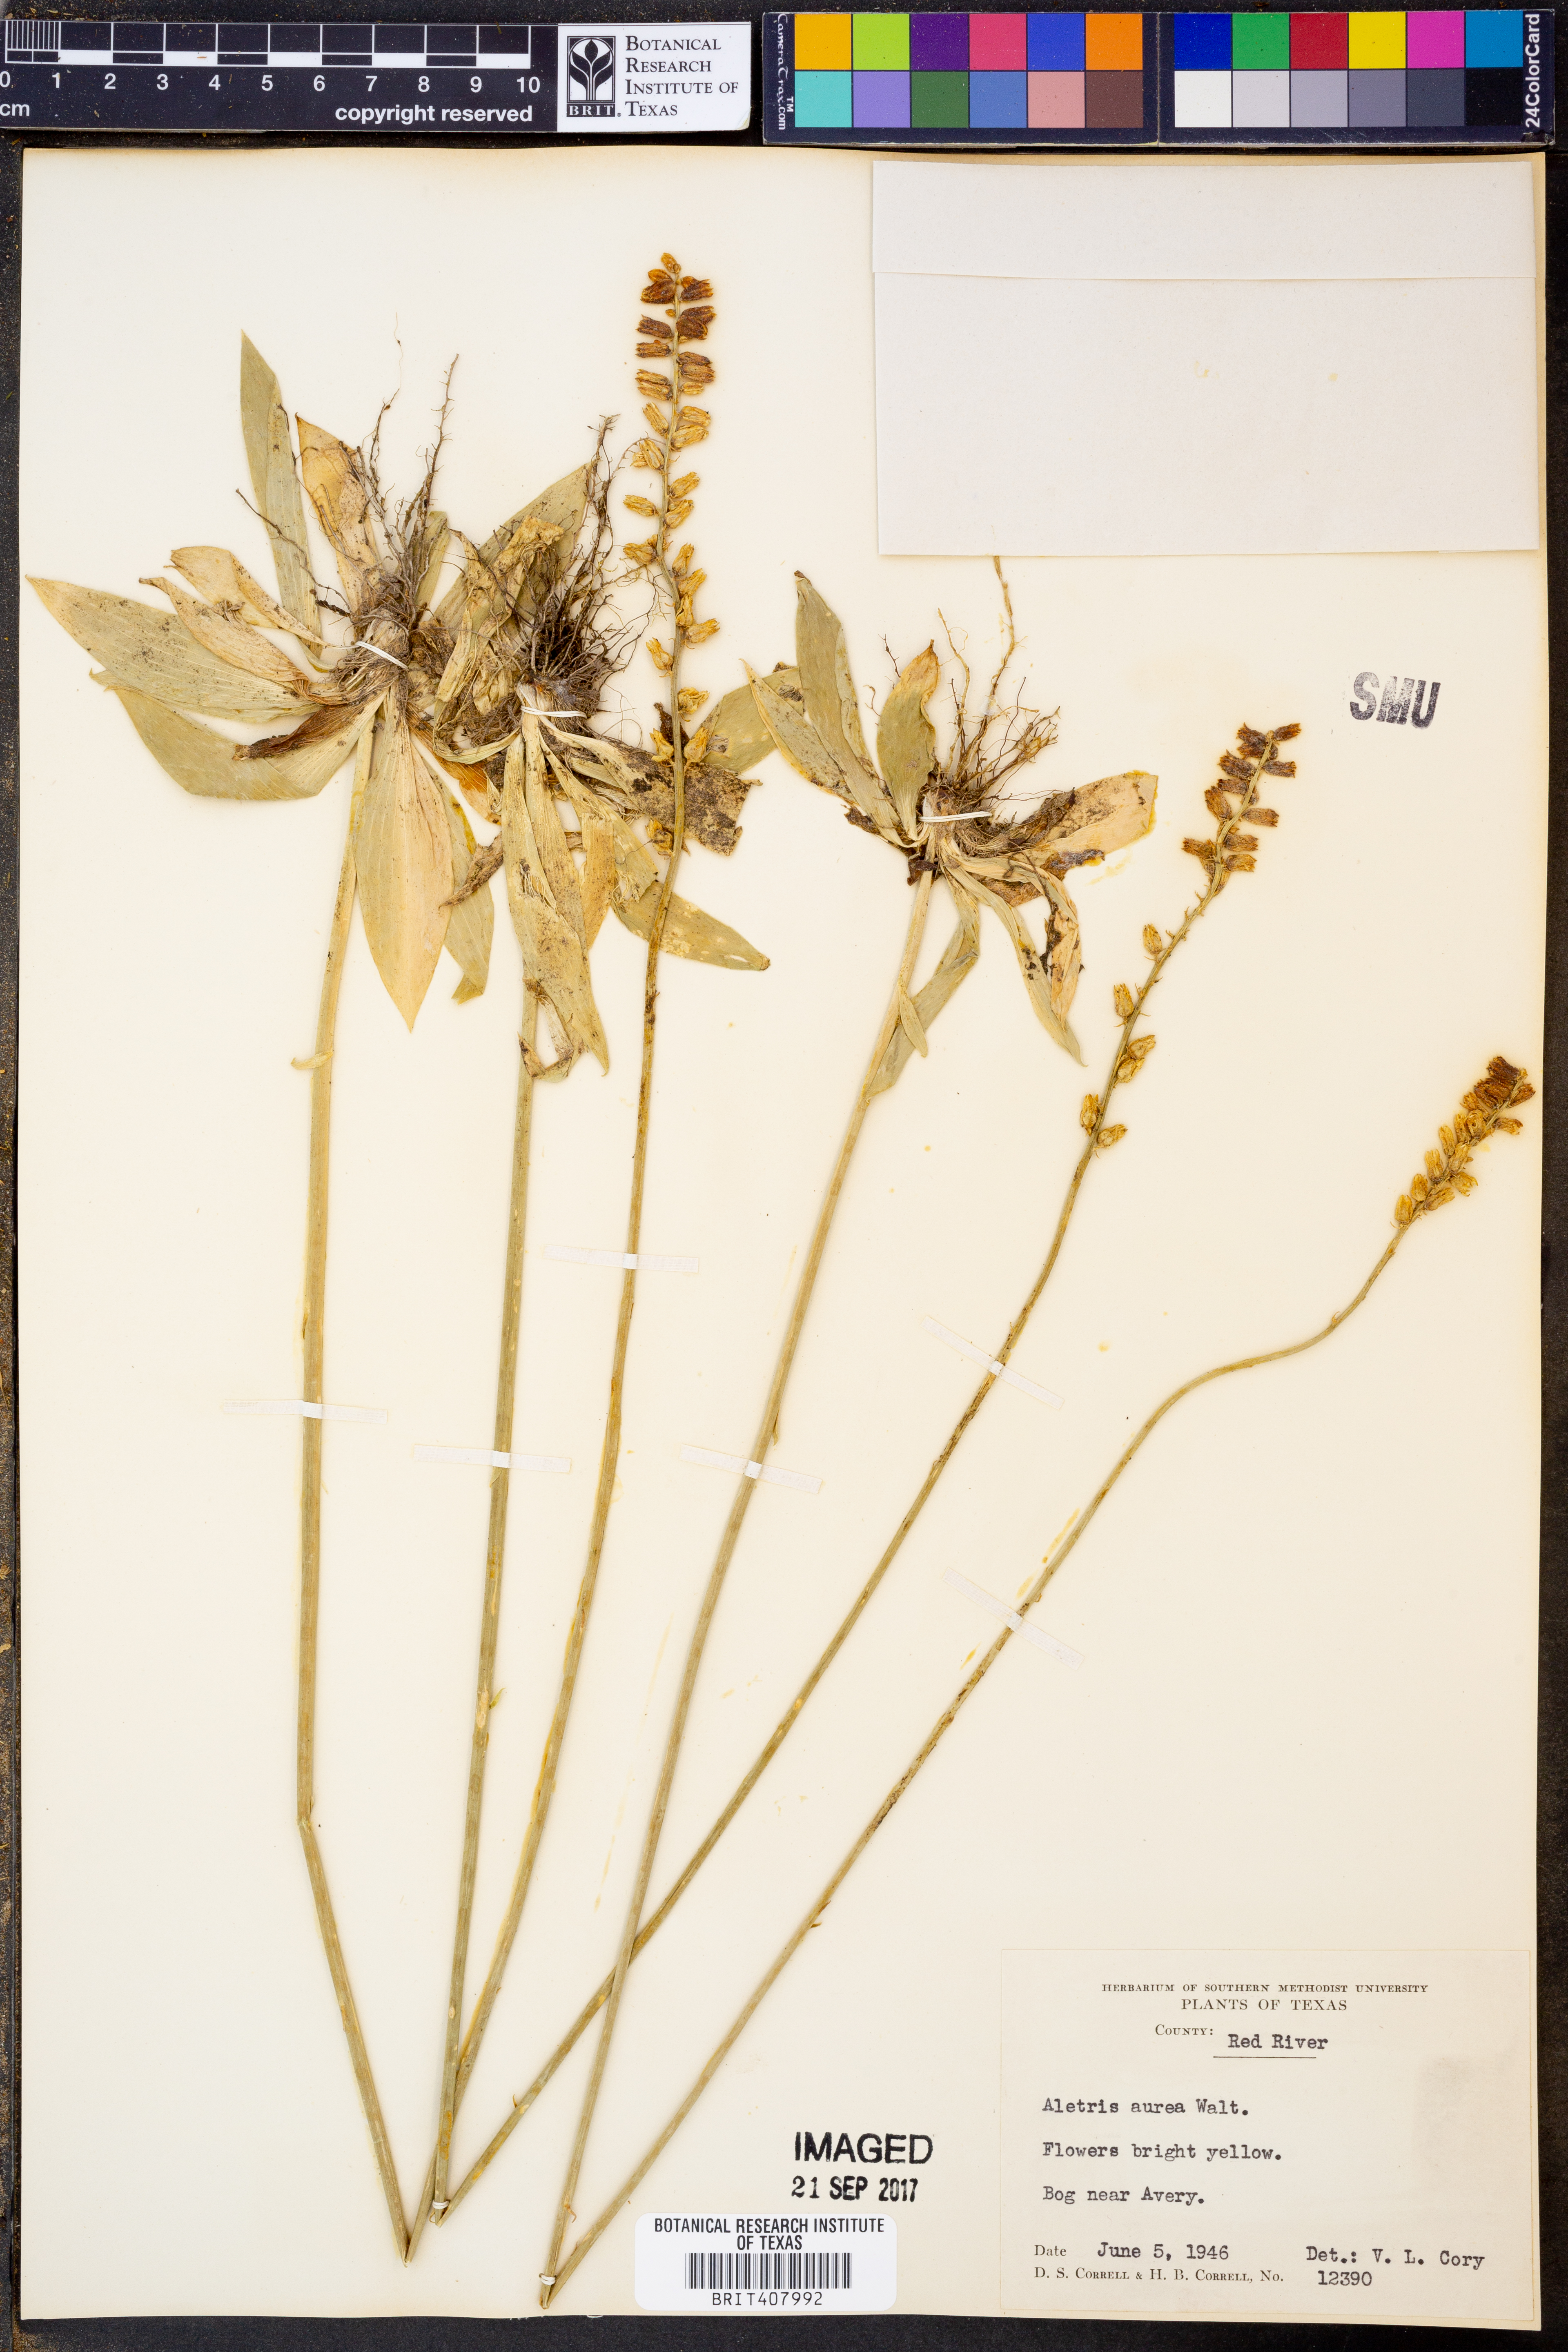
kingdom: Plantae
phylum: Tracheophyta
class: Liliopsida
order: Dioscoreales
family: Nartheciaceae
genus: Aletris
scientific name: Aletris aurea
